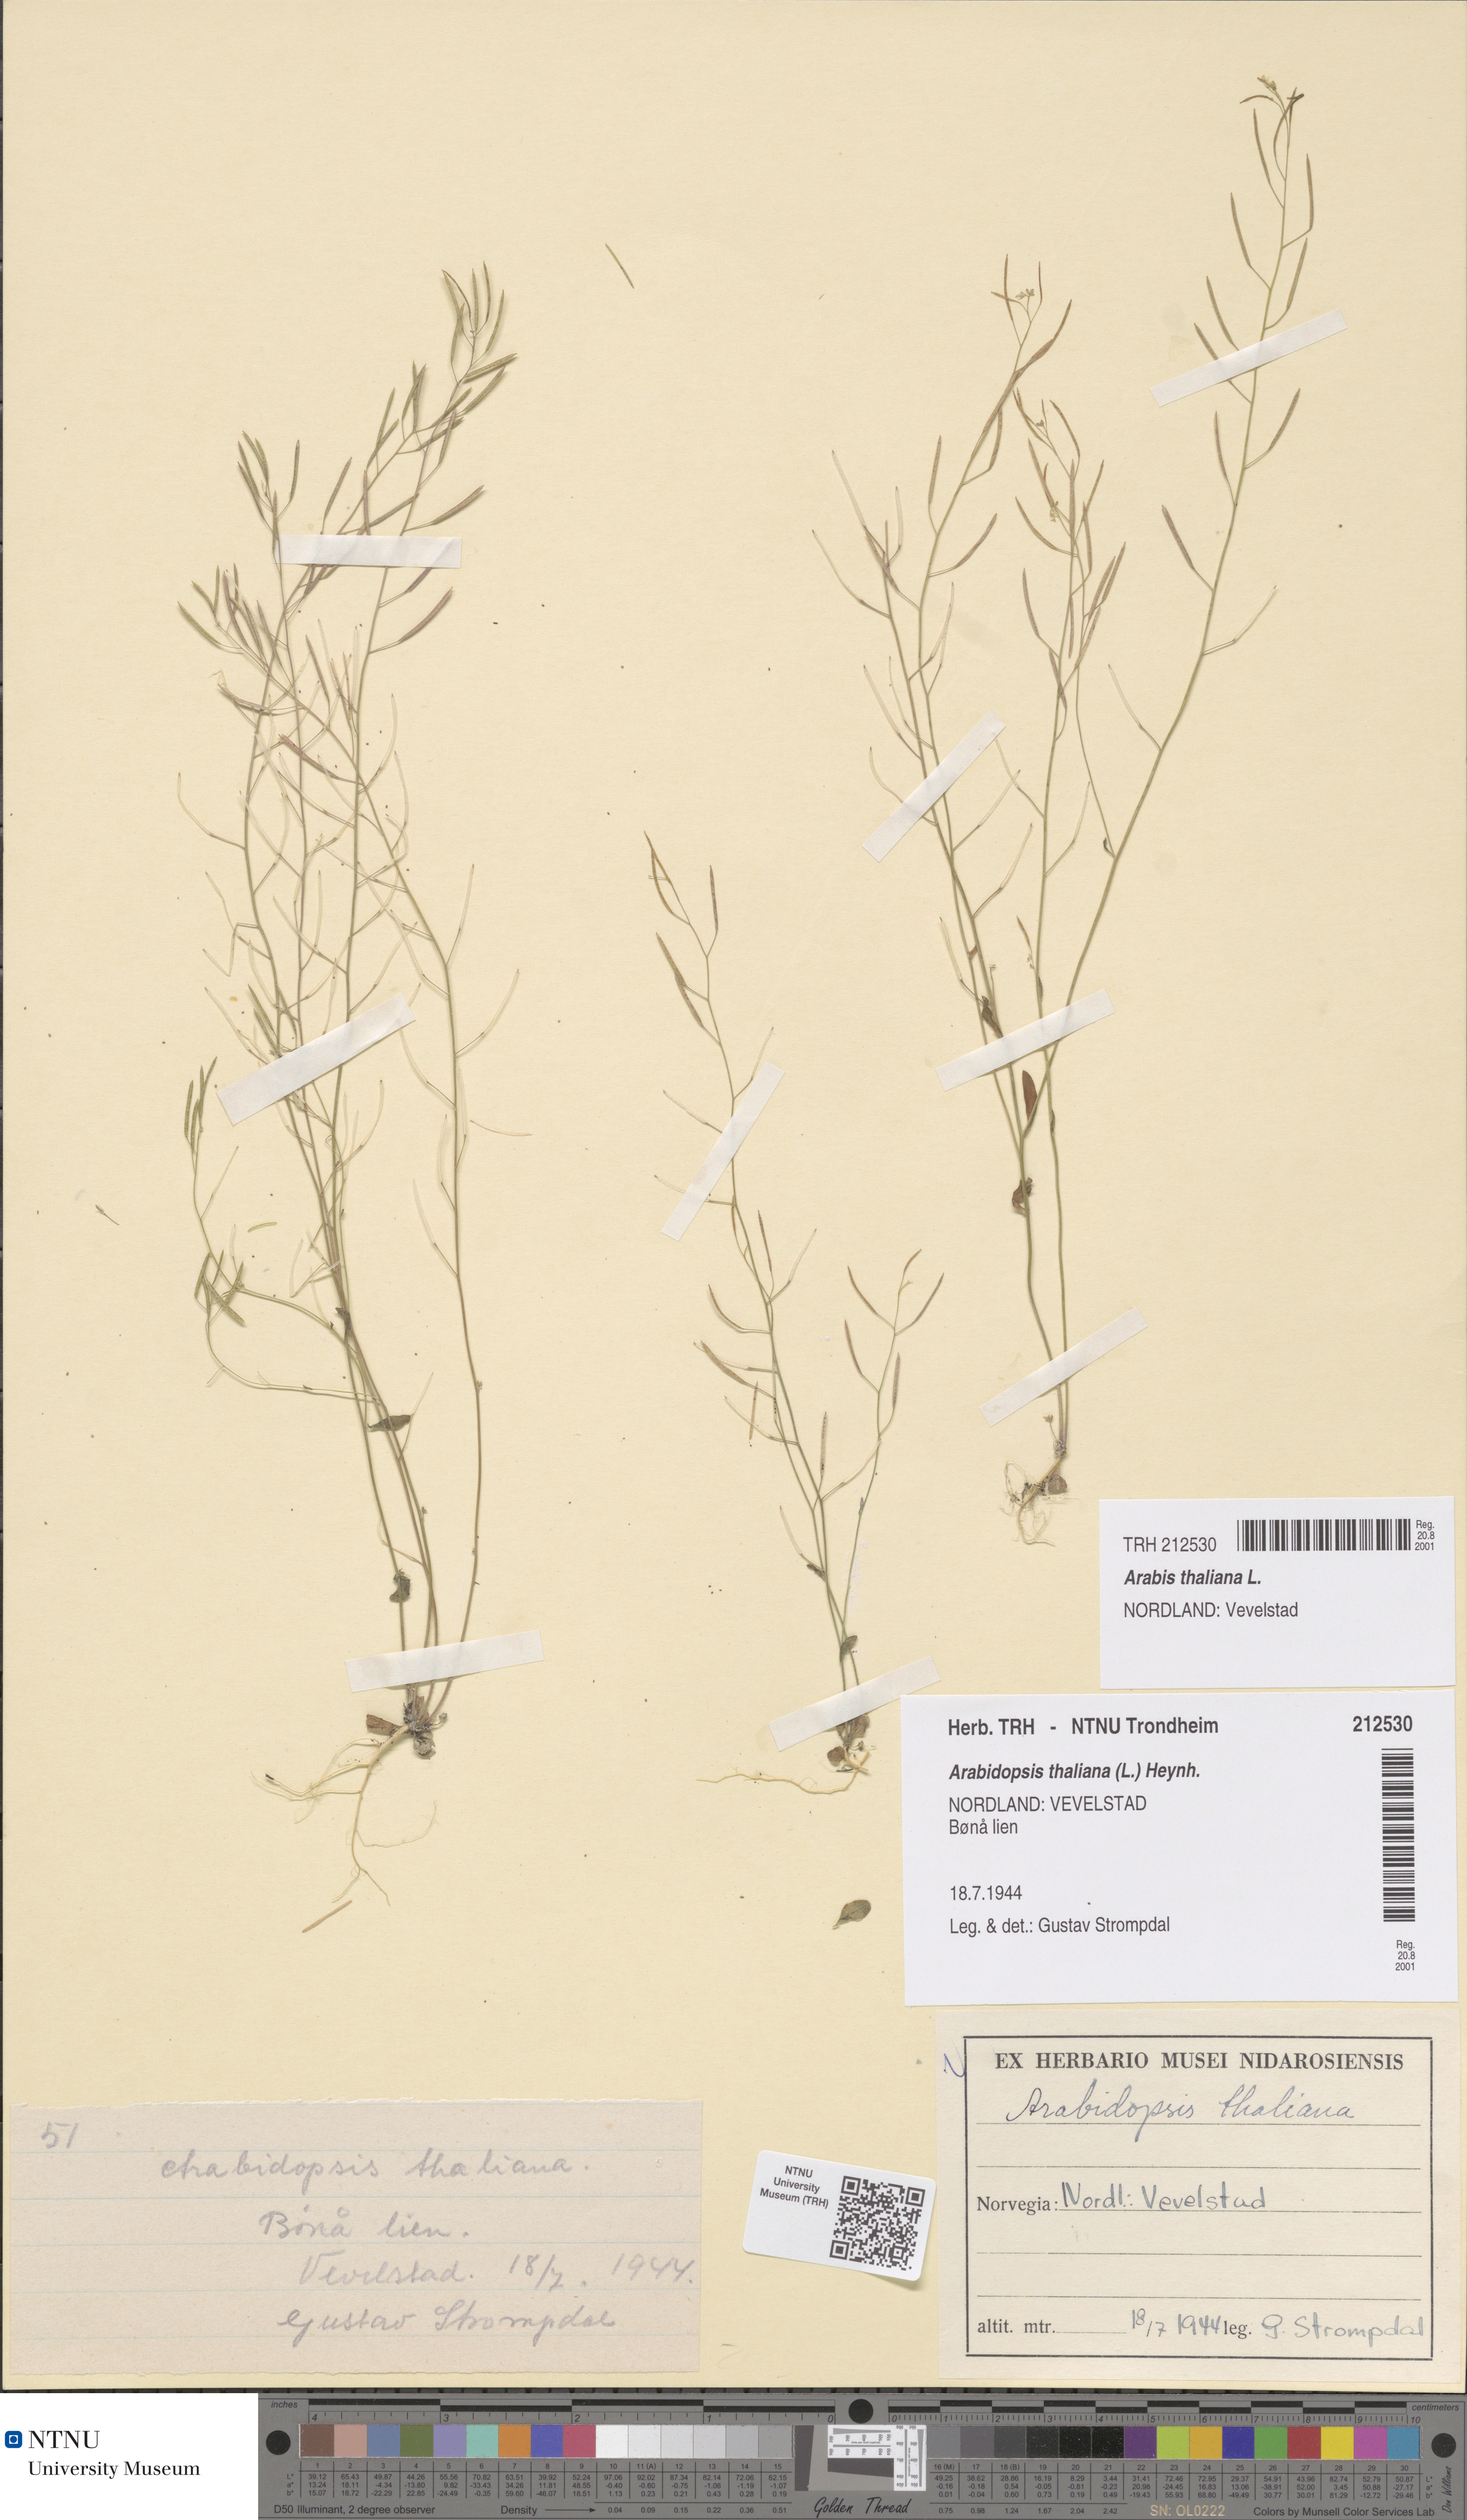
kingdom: Plantae
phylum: Tracheophyta
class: Magnoliopsida
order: Brassicales
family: Brassicaceae
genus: Arabidopsis
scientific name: Arabidopsis thaliana
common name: Thale cress
